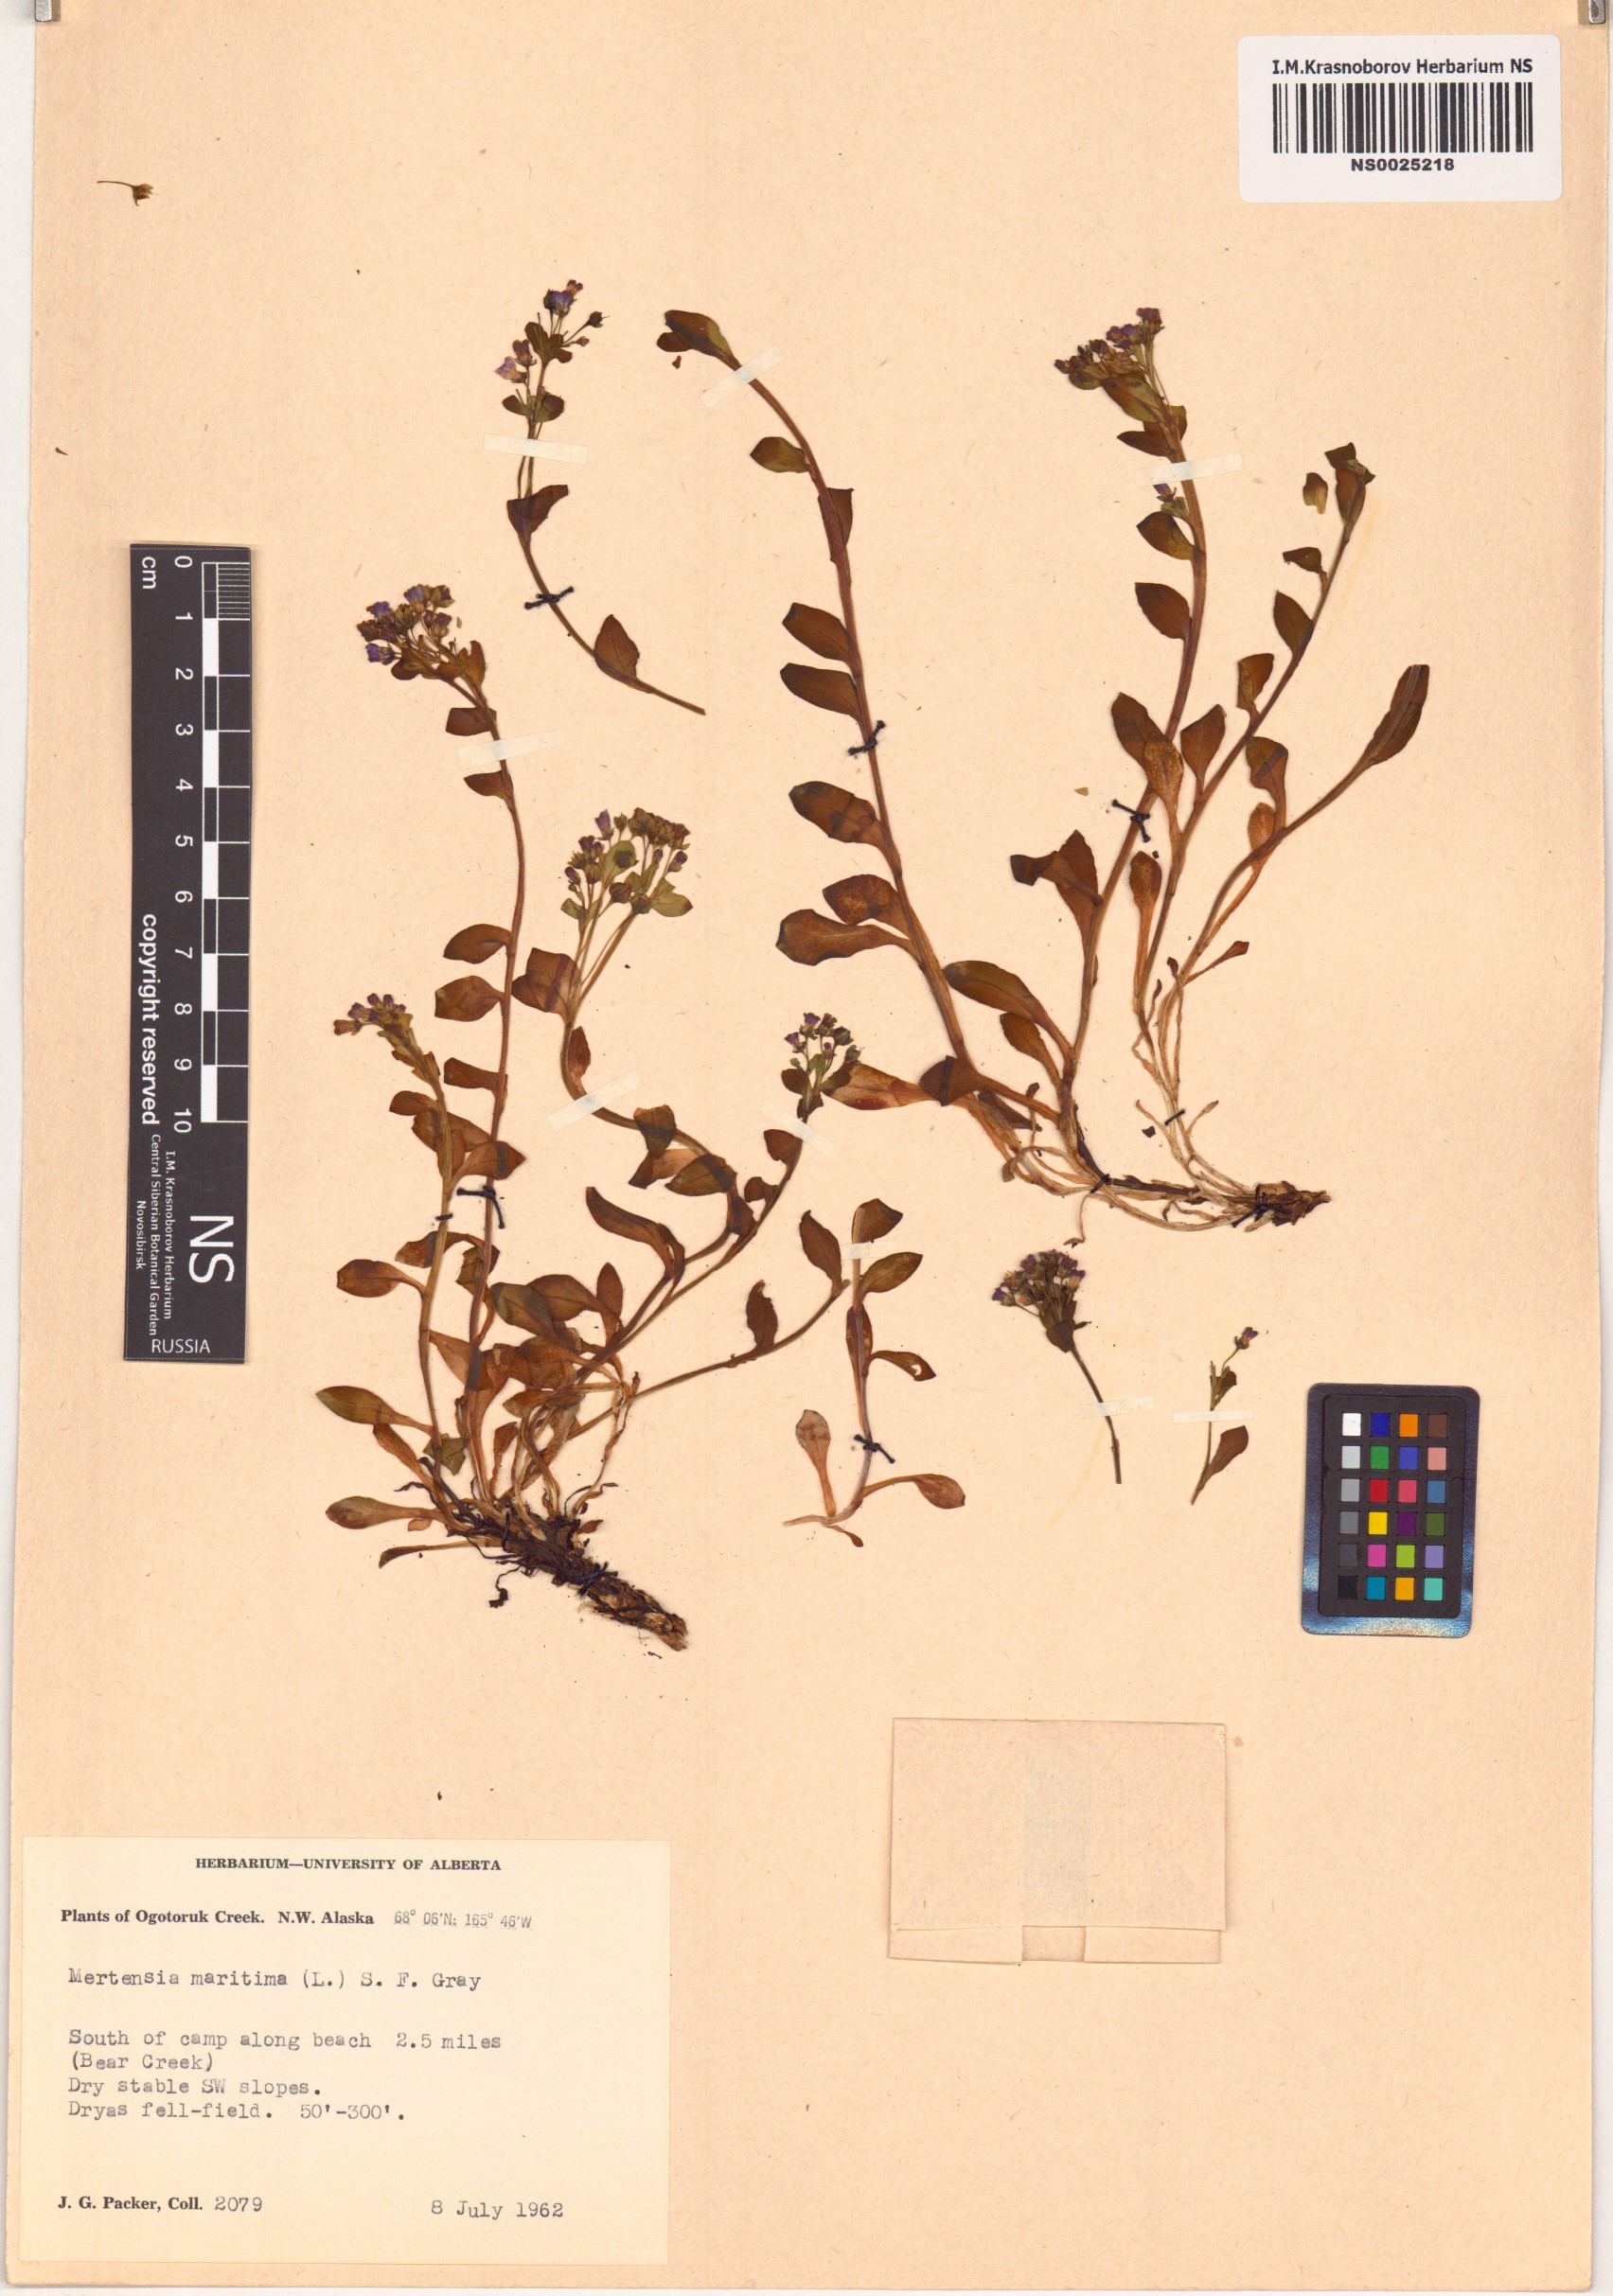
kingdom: Plantae
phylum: Tracheophyta
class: Magnoliopsida
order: Boraginales
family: Boraginaceae
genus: Mertensia
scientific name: Mertensia maritima
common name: Oysterplant
